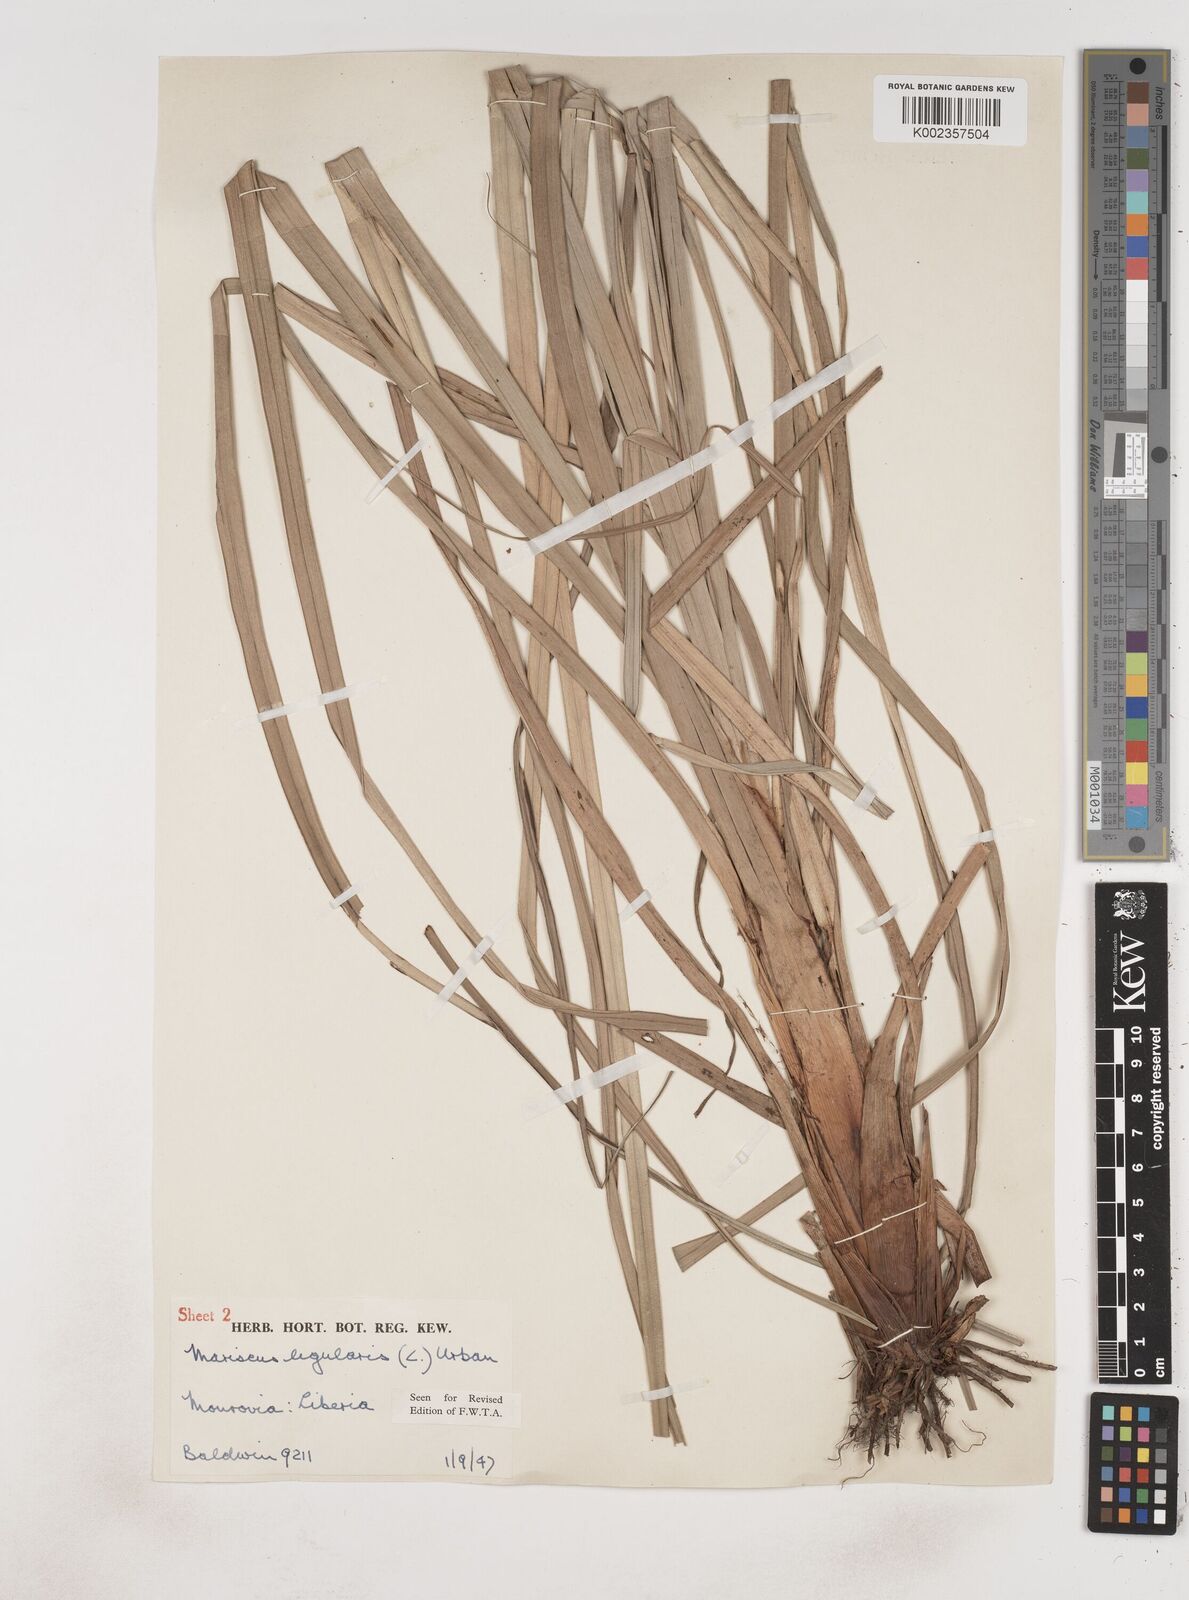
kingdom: Plantae
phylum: Tracheophyta
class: Liliopsida
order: Poales
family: Cyperaceae
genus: Cyperus
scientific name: Cyperus ligularis
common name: Swamp flat sedge
